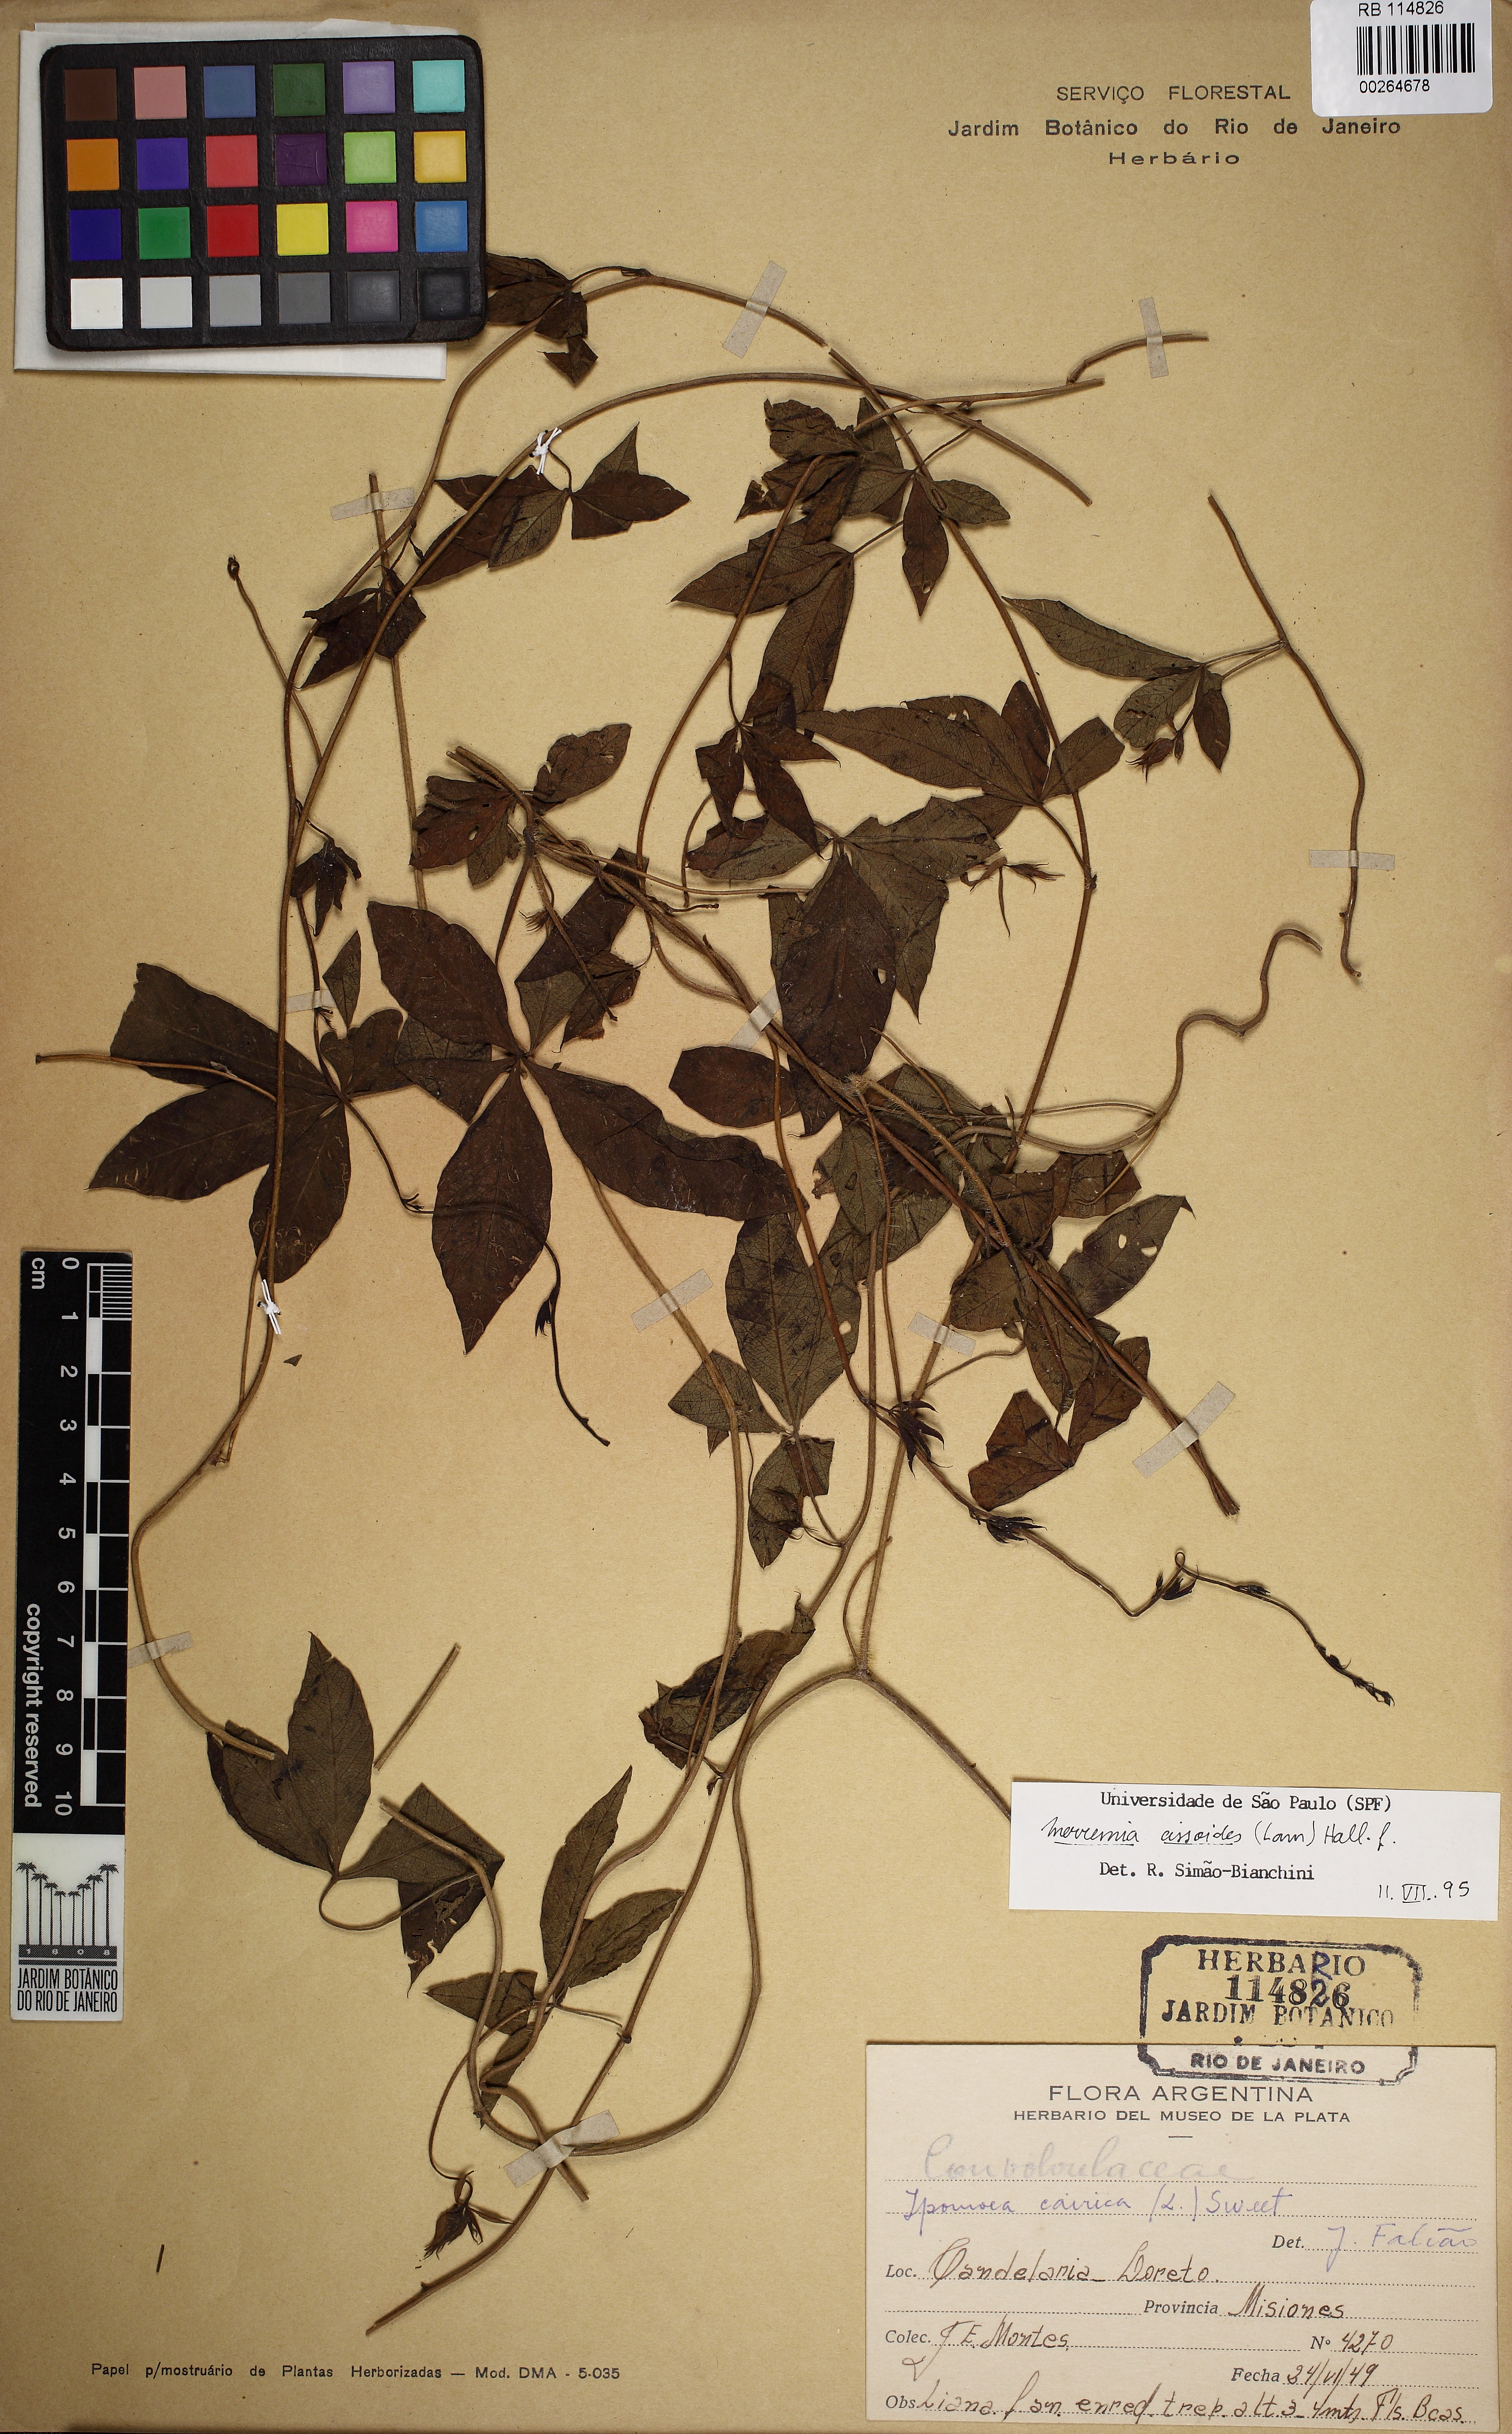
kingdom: Plantae
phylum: Tracheophyta
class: Magnoliopsida
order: Solanales
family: Convolvulaceae
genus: Distimake
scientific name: Distimake cissoides
